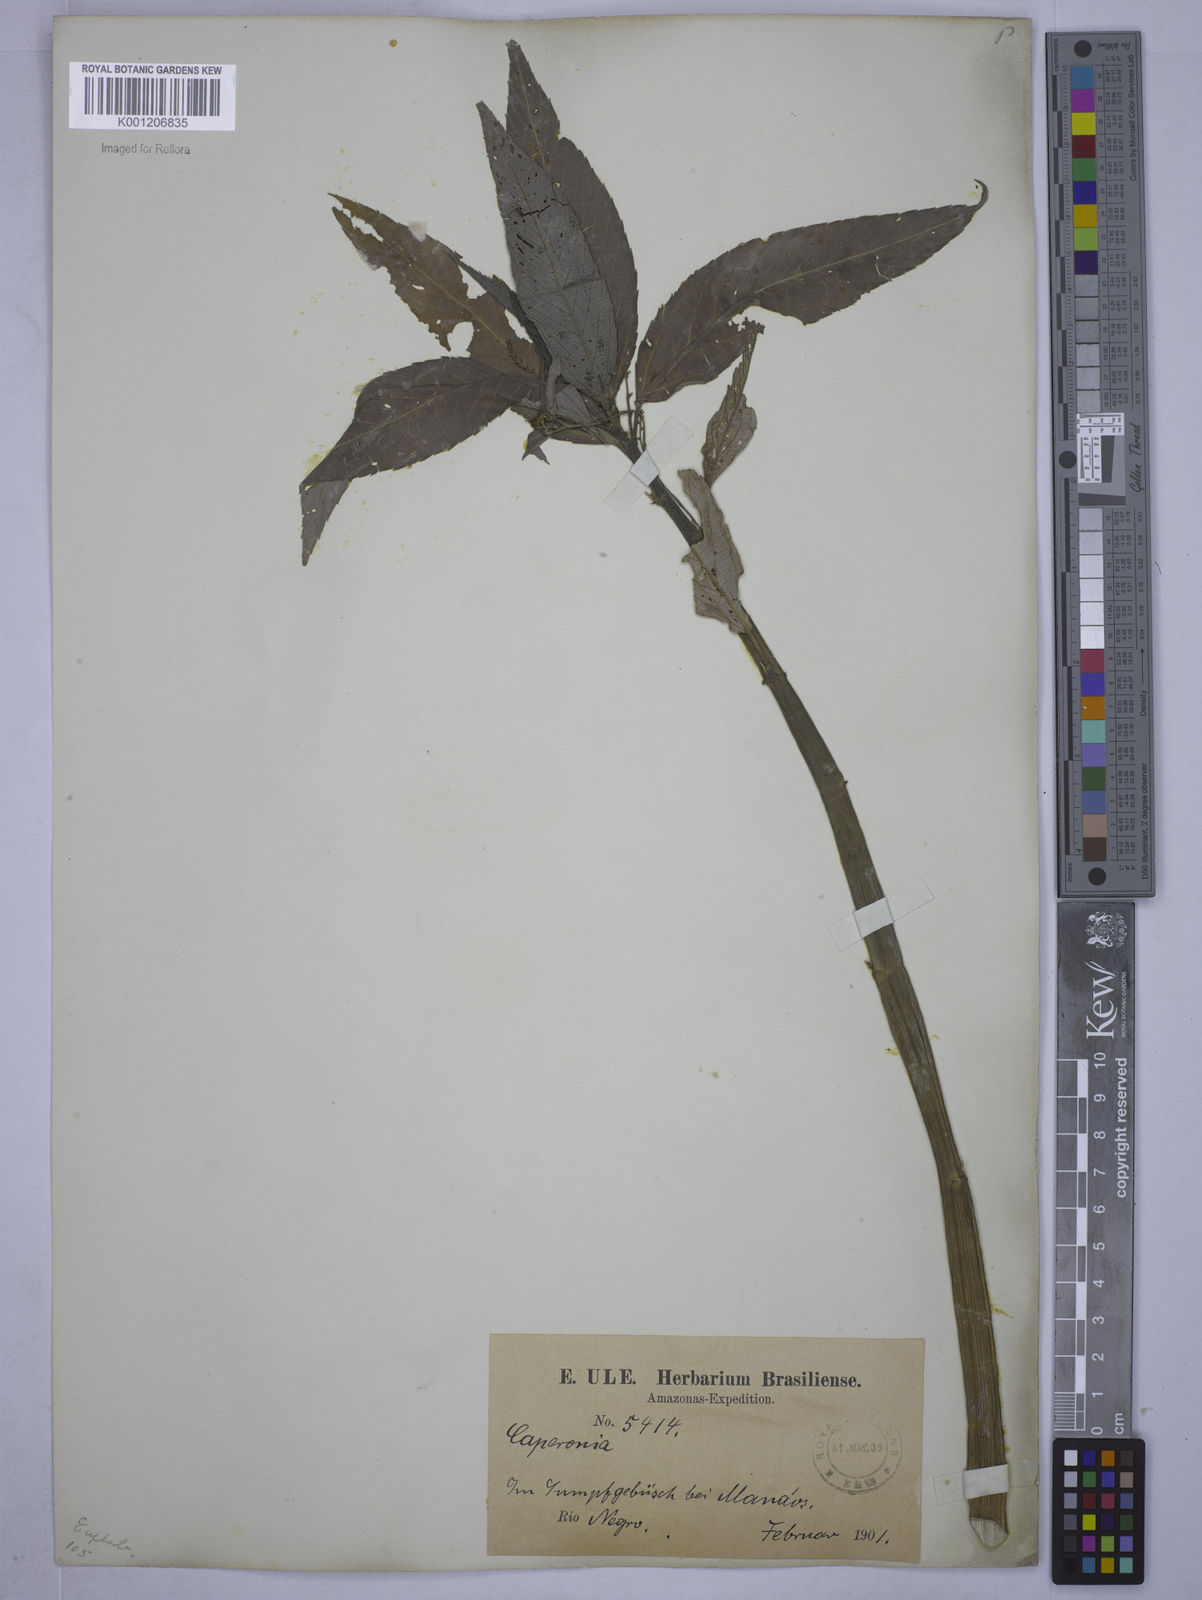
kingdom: Plantae
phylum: Tracheophyta
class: Magnoliopsida
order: Malpighiales
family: Euphorbiaceae
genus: Caperonia
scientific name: Caperonia castaneifolia
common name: Chestnutleaf false croton
